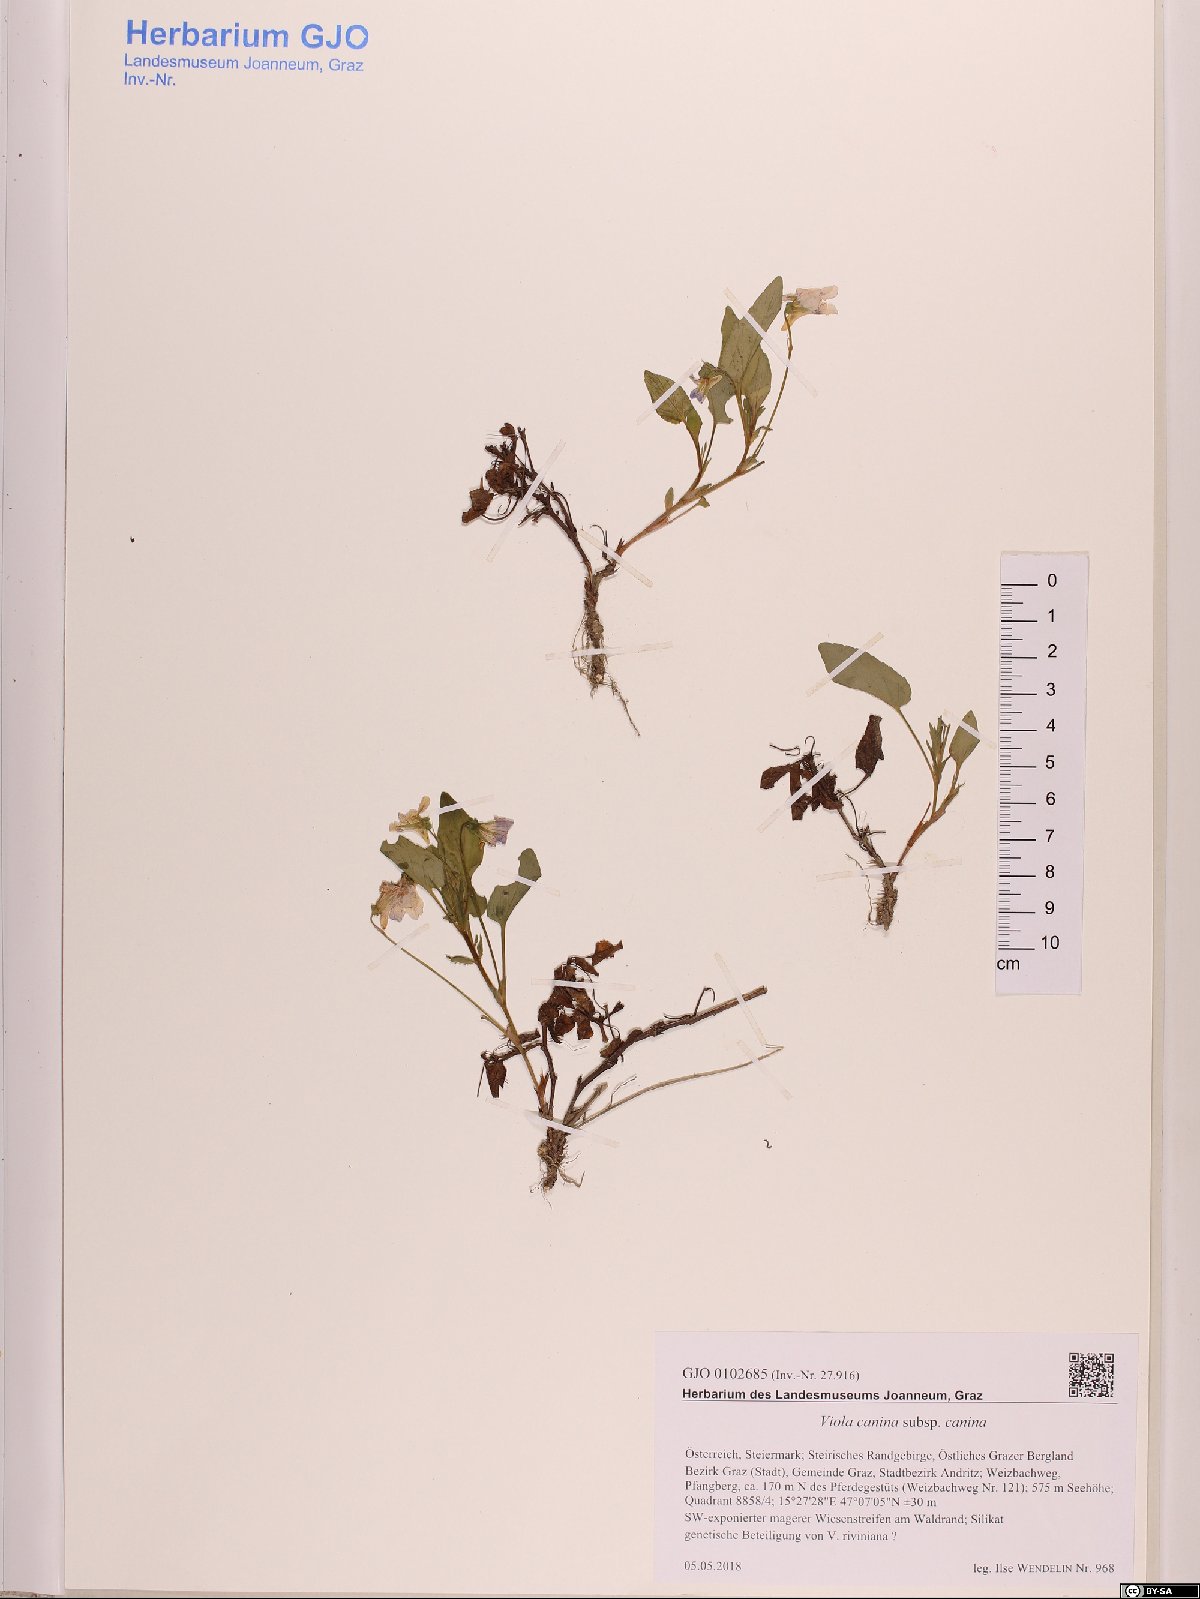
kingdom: Plantae
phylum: Tracheophyta
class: Magnoliopsida
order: Malpighiales
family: Violaceae
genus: Viola
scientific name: Viola canina
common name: Heath dog-violet
